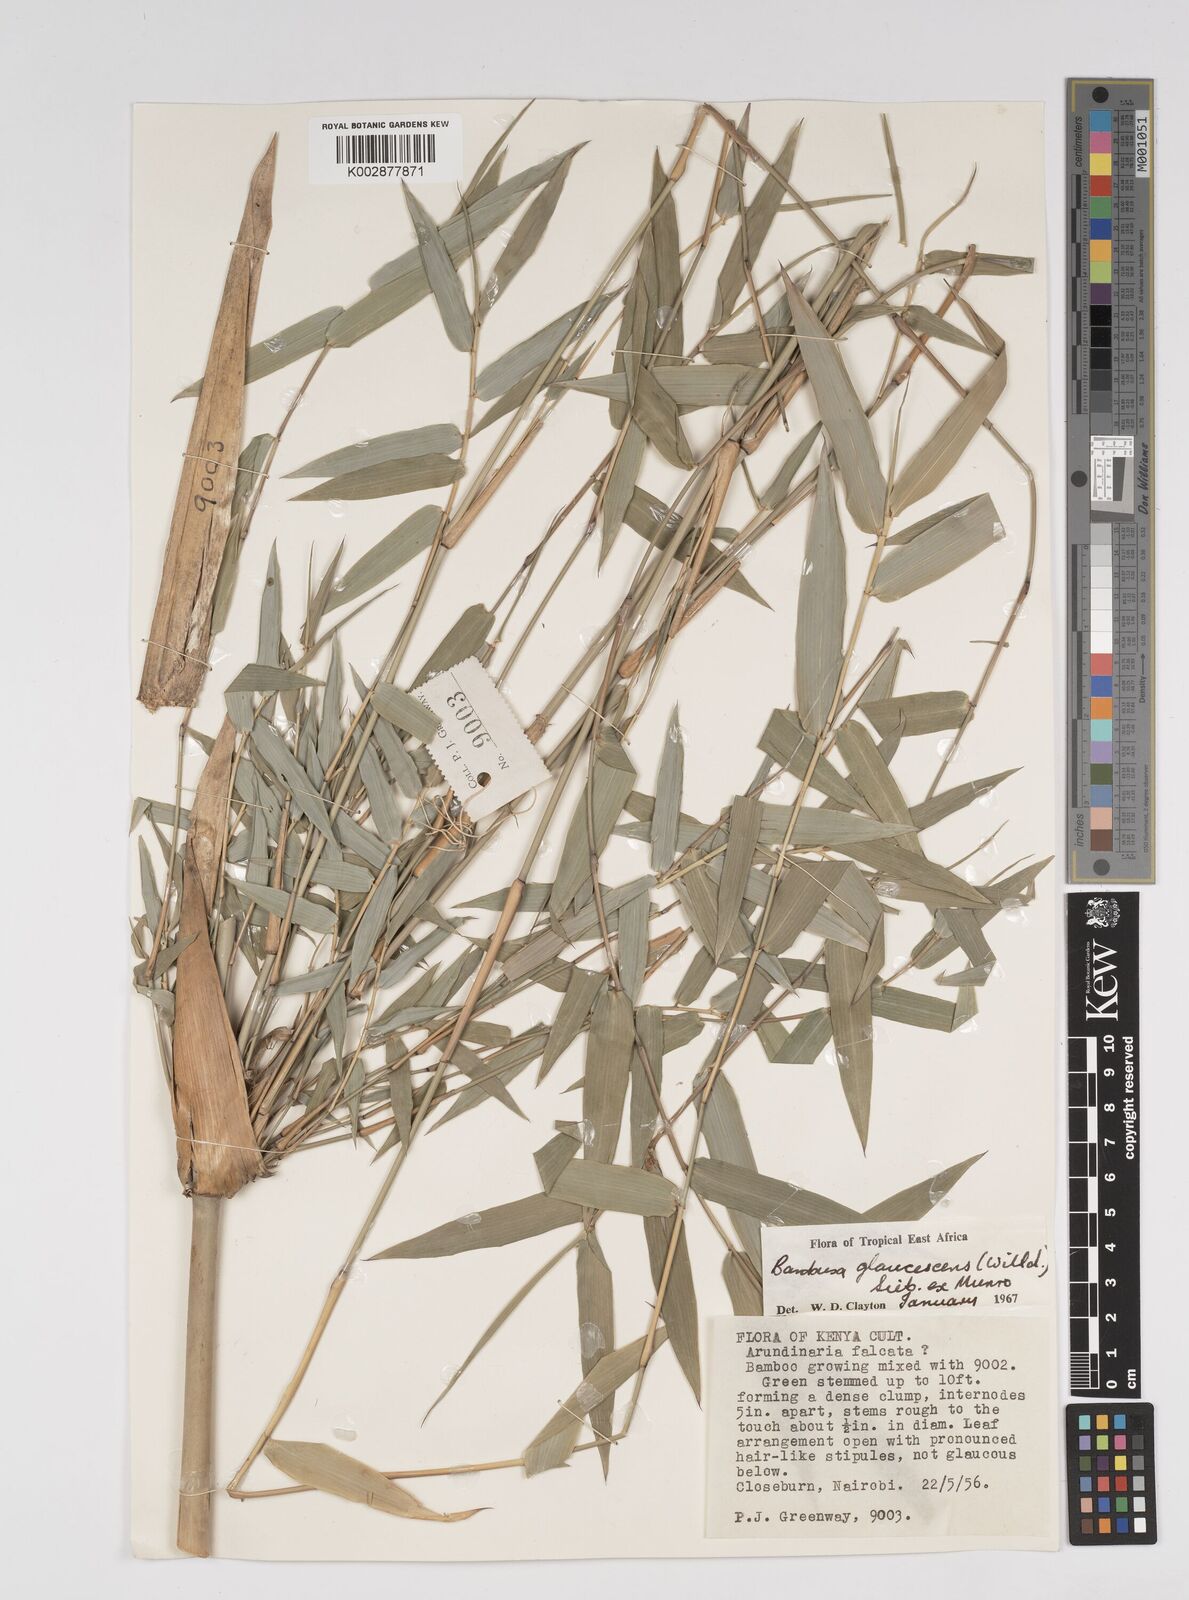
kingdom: Plantae
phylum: Tracheophyta
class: Liliopsida
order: Poales
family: Poaceae
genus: Bambusa
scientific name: Bambusa multiplex
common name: Hedge bamboo
